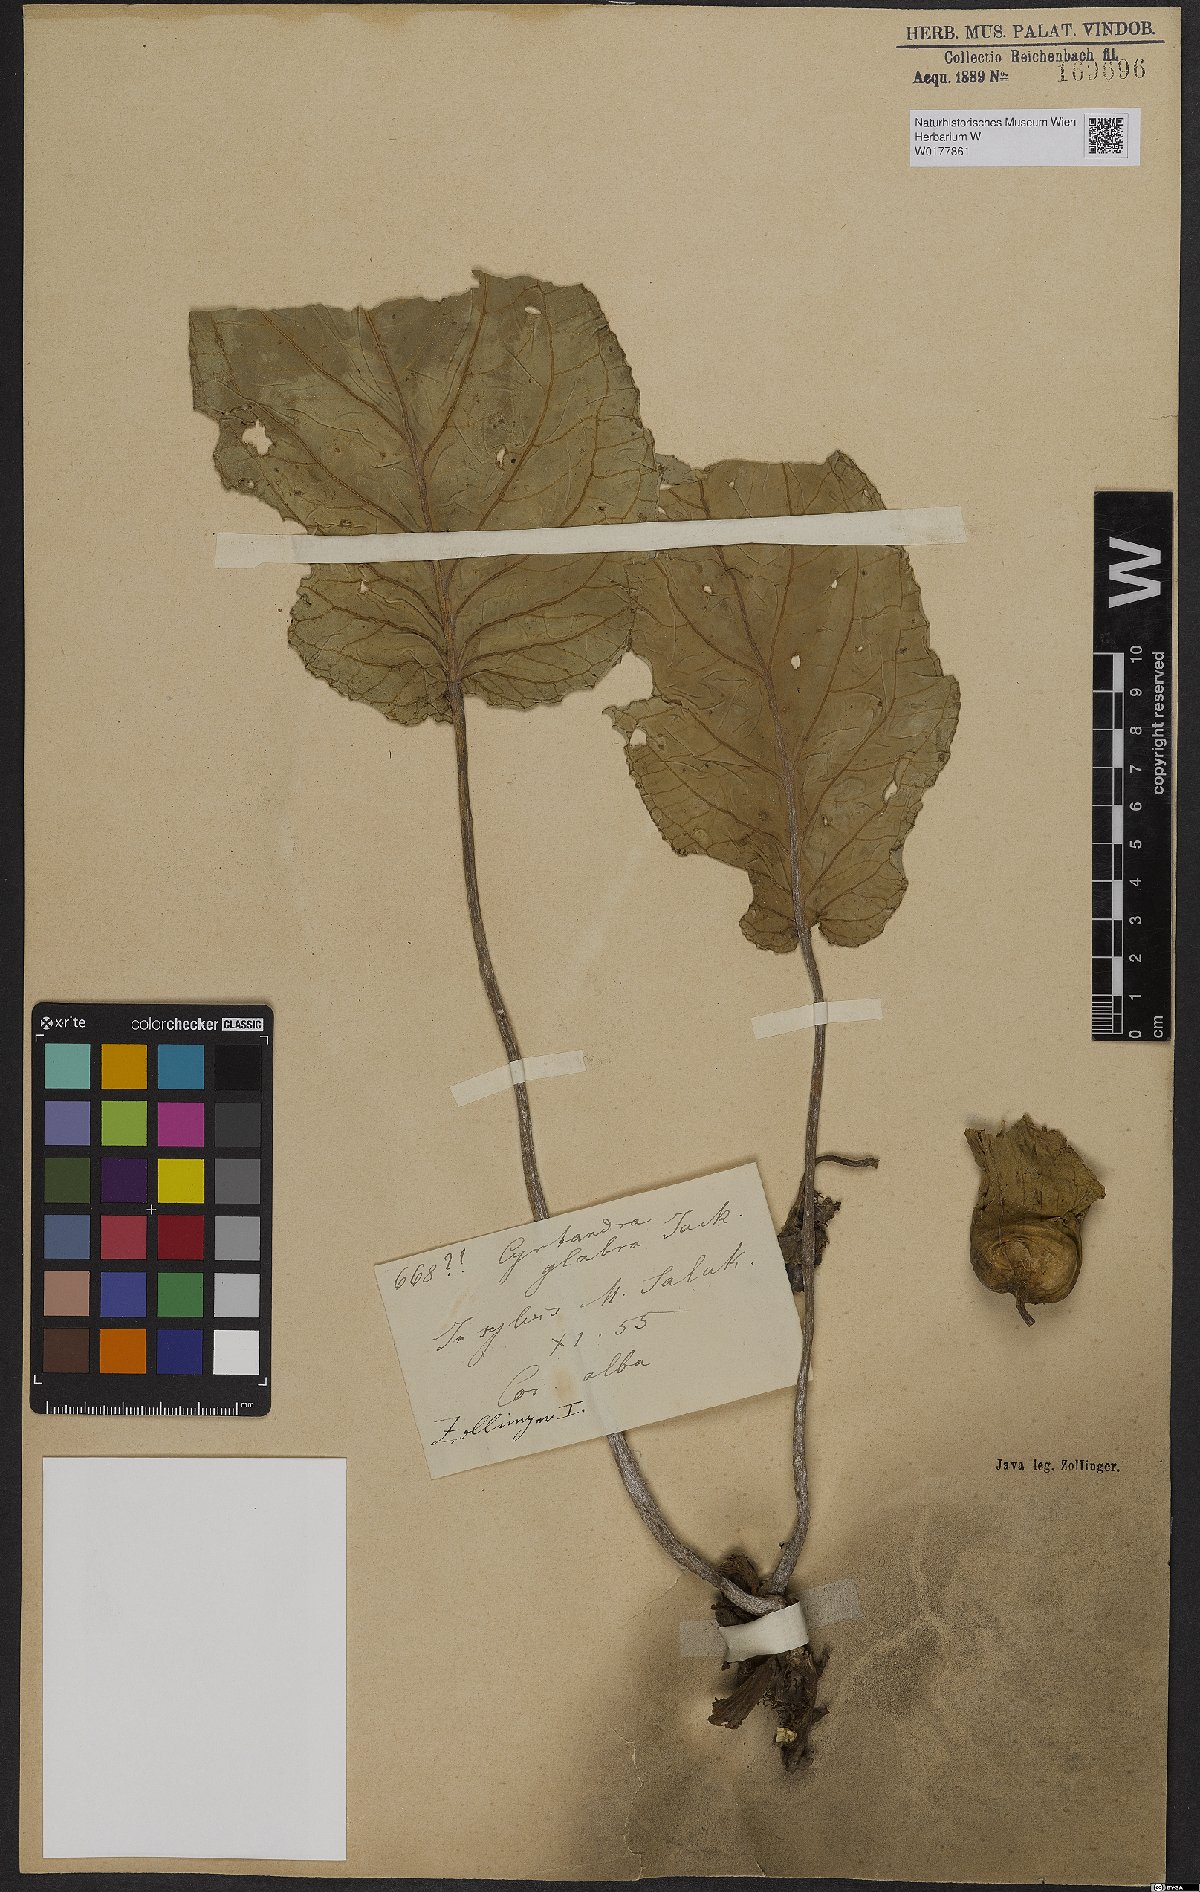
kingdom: Plantae
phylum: Tracheophyta
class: Magnoliopsida
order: Lamiales
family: Gesneriaceae
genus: Cyrtandra
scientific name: Cyrtandra jackii
